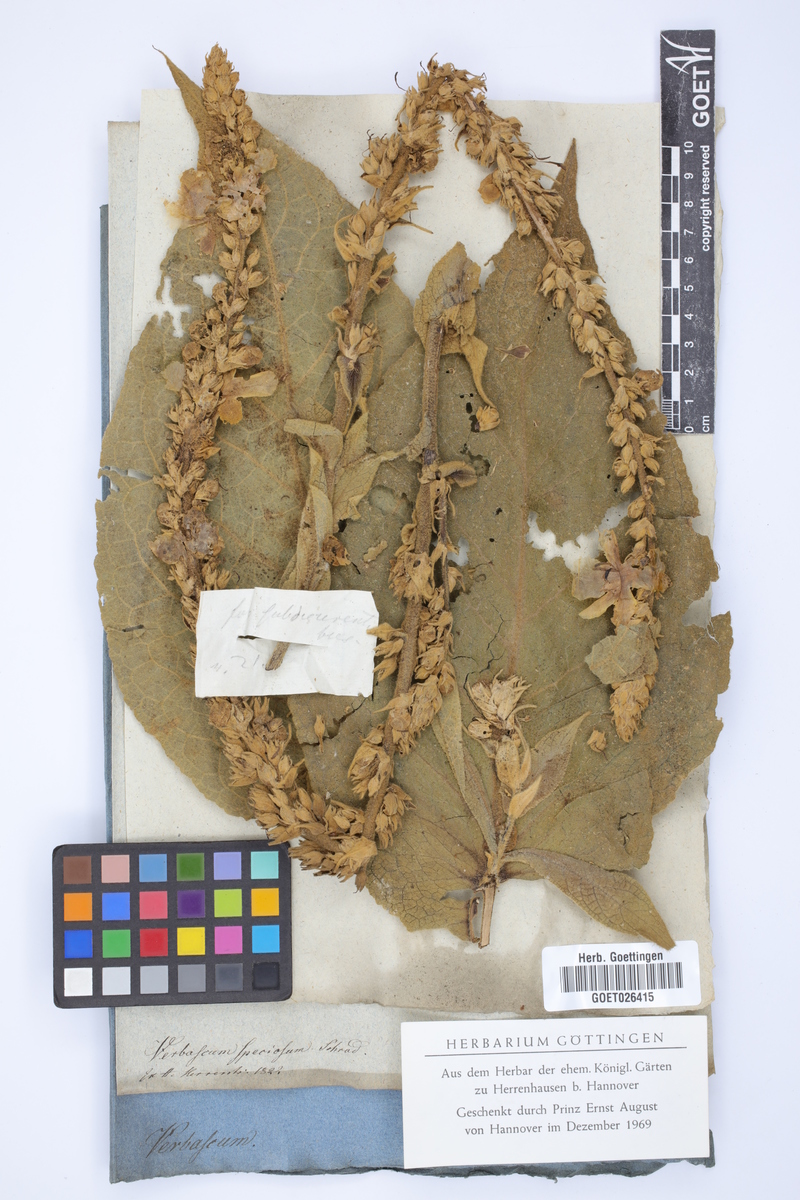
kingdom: Plantae
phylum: Tracheophyta
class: Magnoliopsida
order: Lamiales
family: Scrophulariaceae
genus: Verbascum
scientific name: Verbascum speciosum
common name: Hungarian mullein
